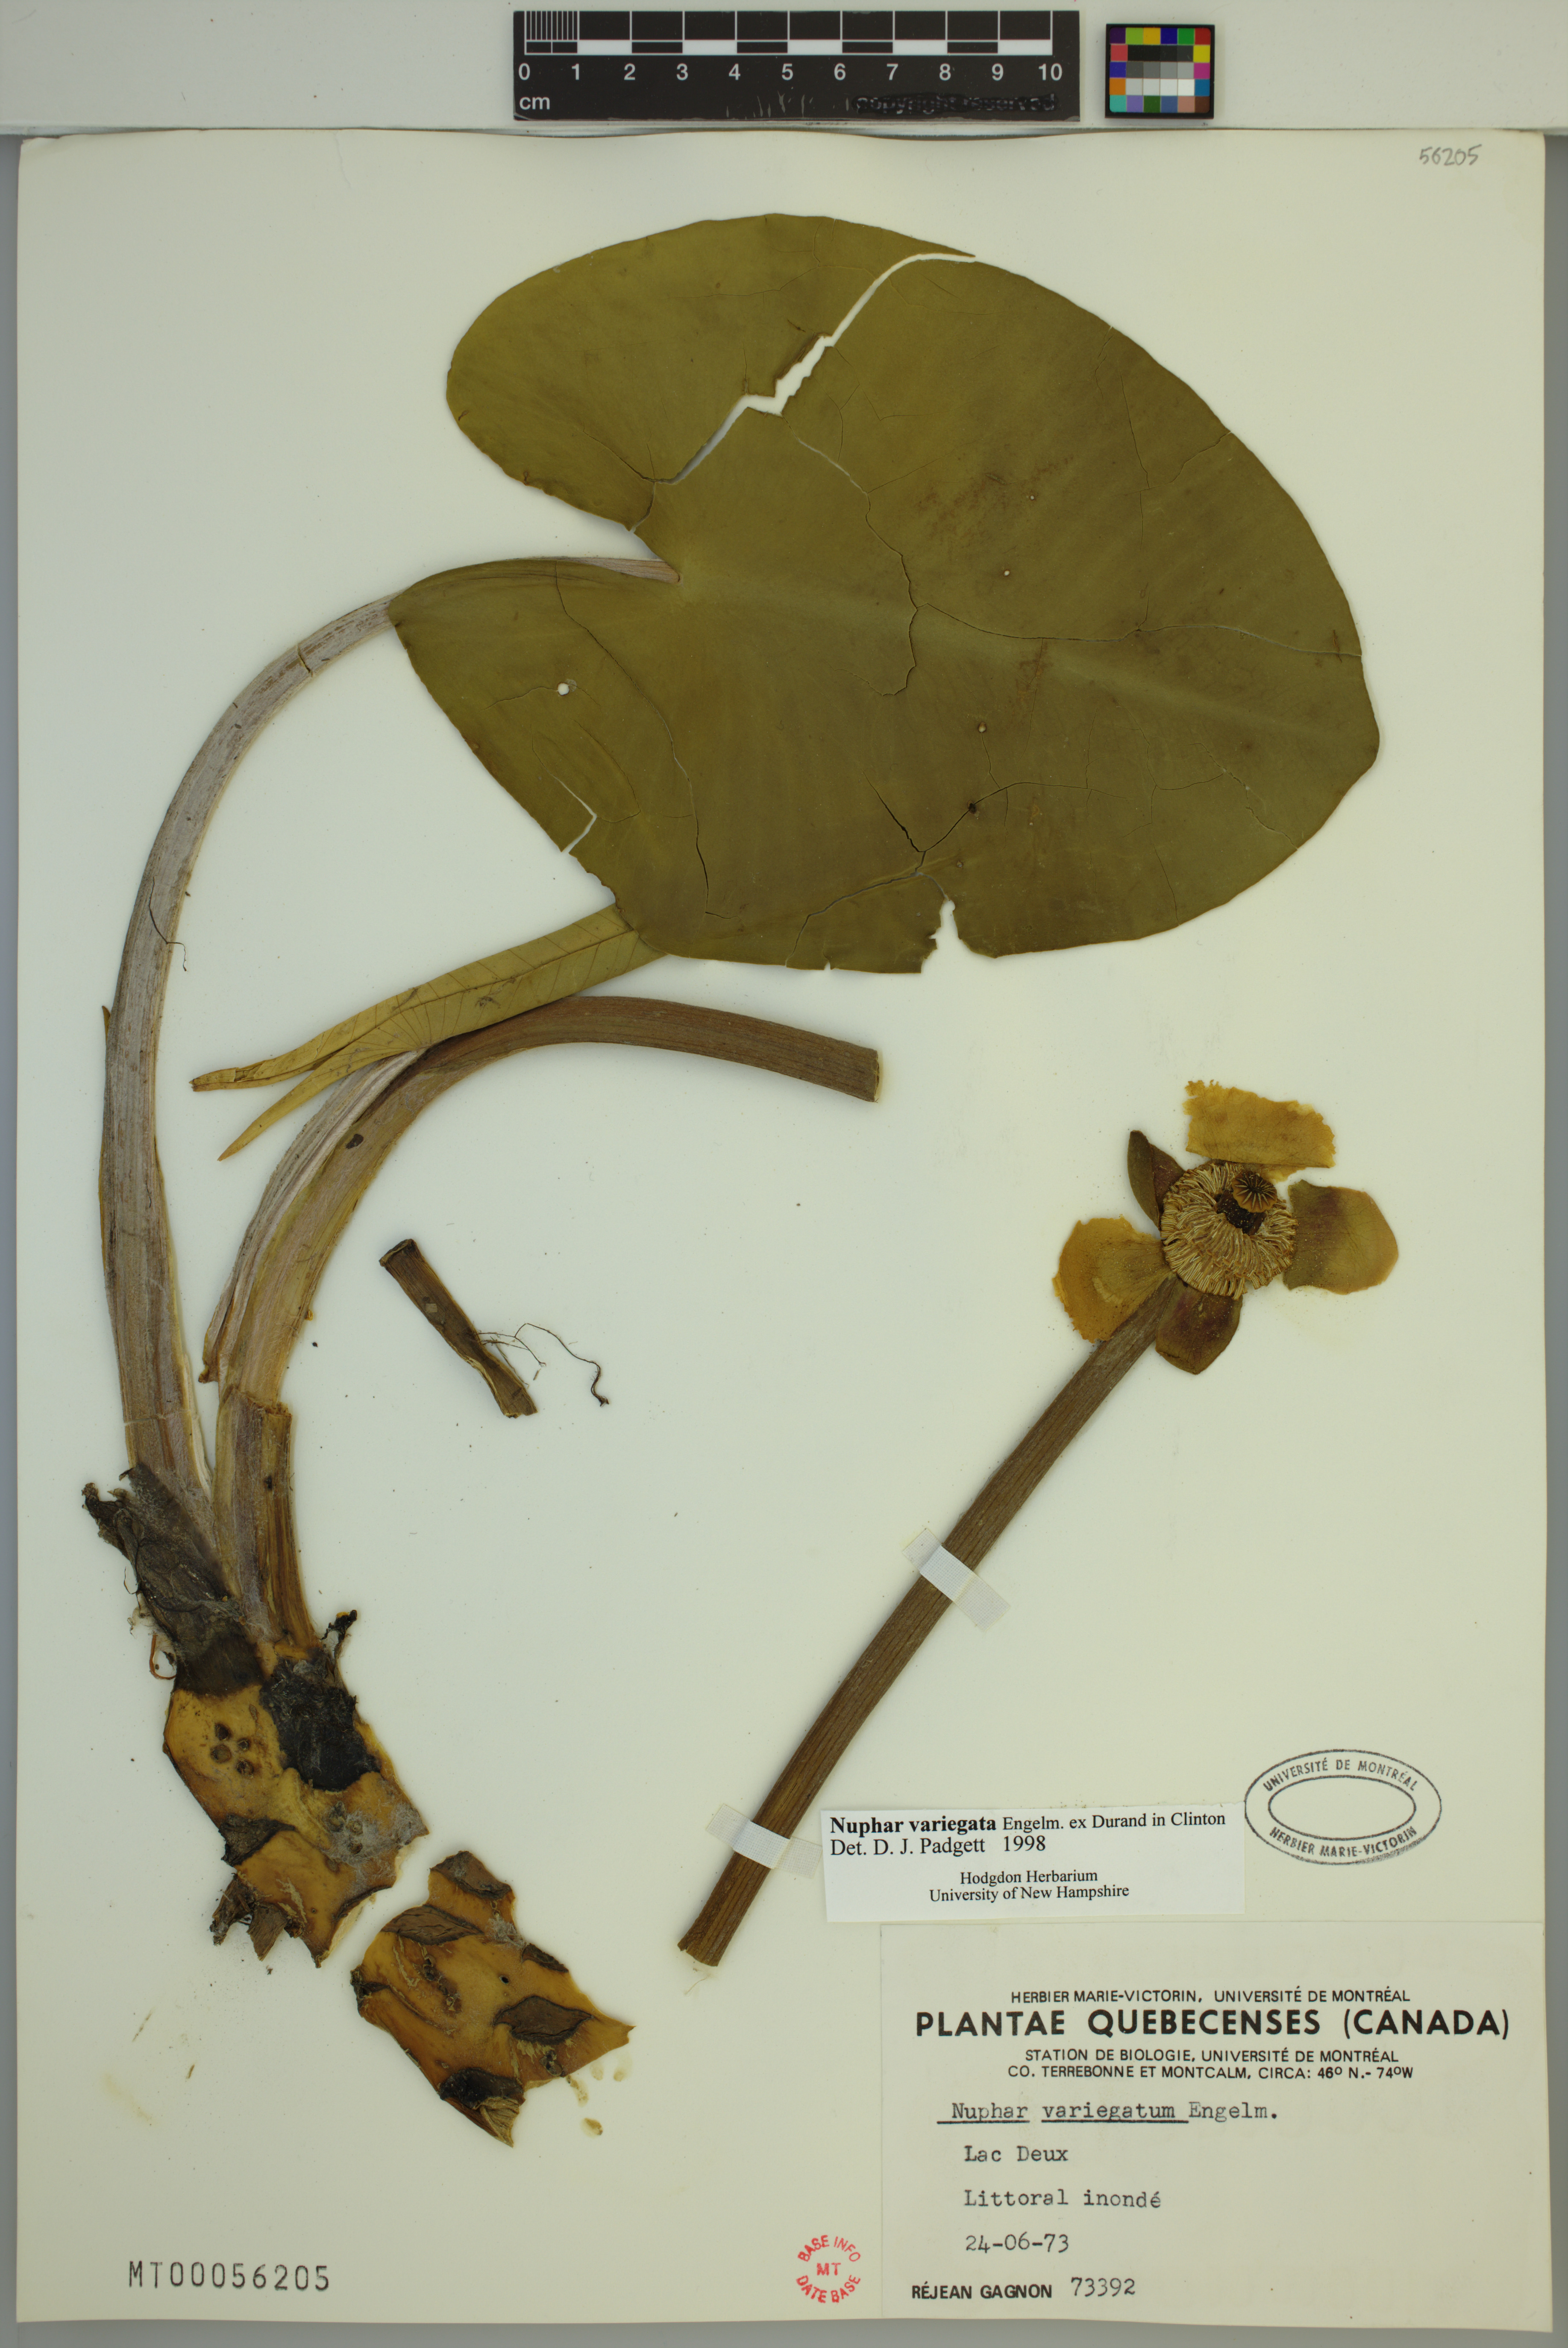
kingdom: Plantae
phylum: Tracheophyta
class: Magnoliopsida
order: Nymphaeales
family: Nymphaeaceae
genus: Nuphar
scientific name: Nuphar variegata
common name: Beaver-root
